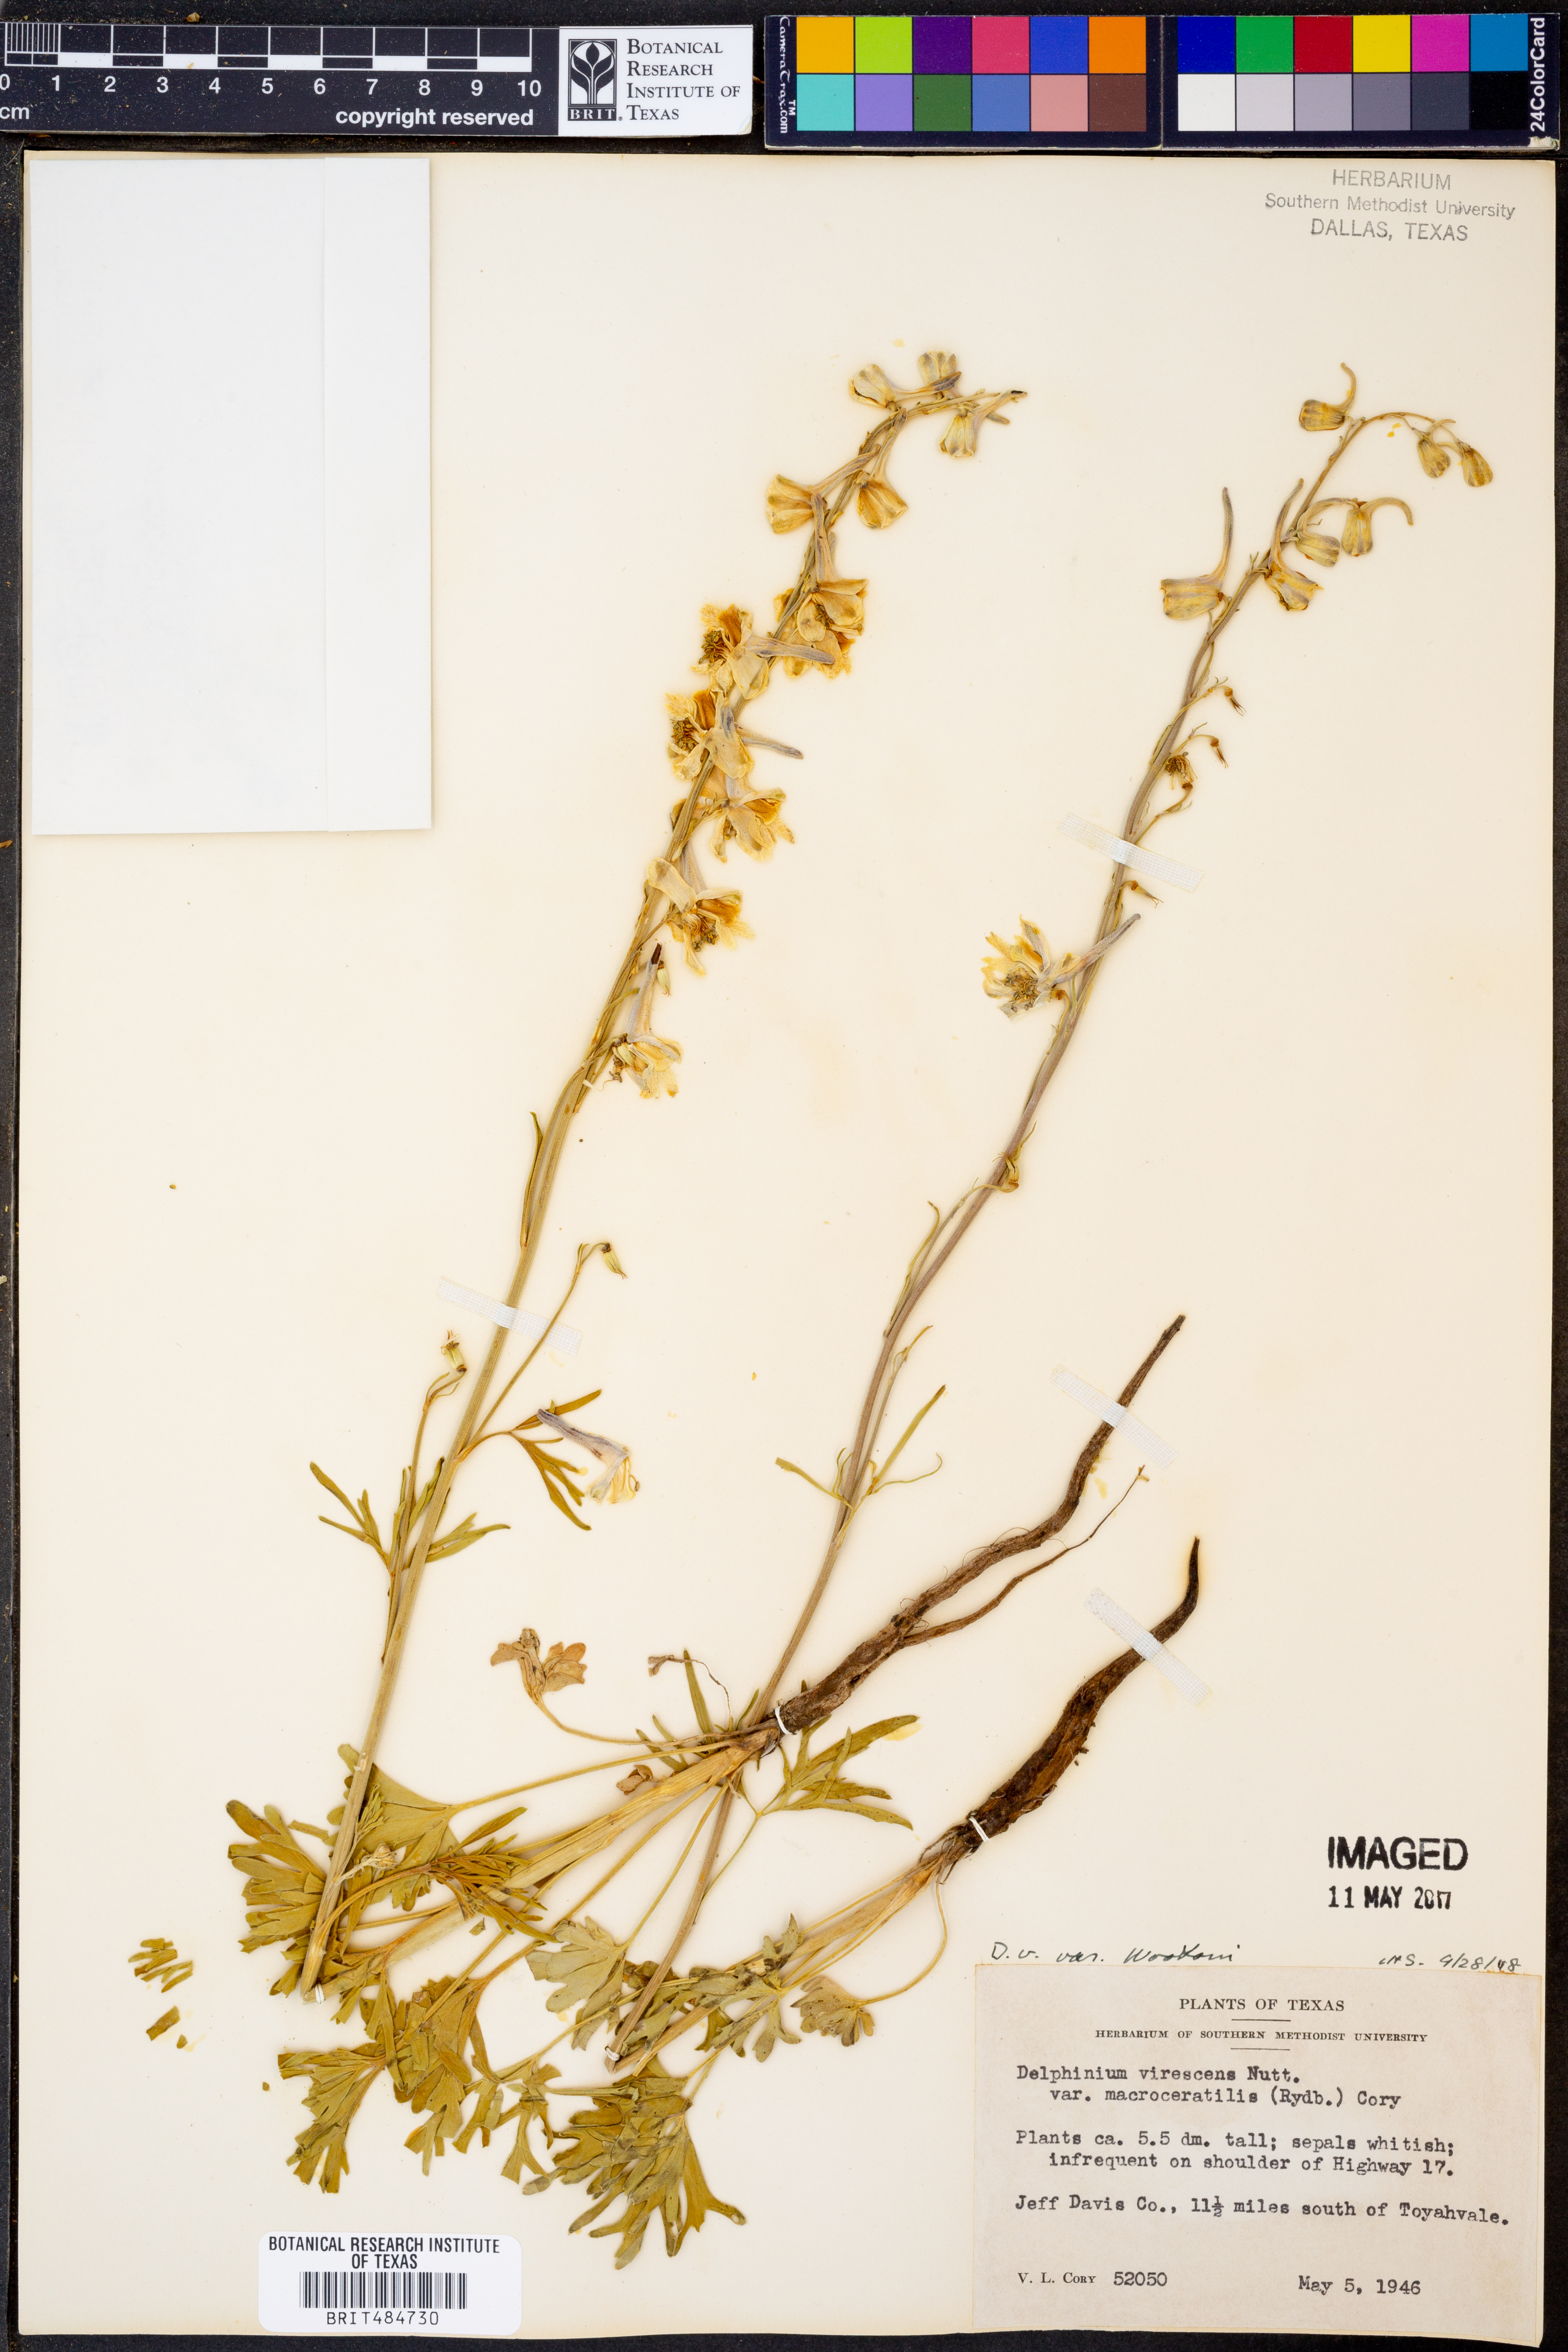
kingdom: Plantae
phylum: Tracheophyta
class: Magnoliopsida
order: Ranunculales
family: Ranunculaceae
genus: Delphinium
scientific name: Delphinium carolinianum
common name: Carolina larkspur
